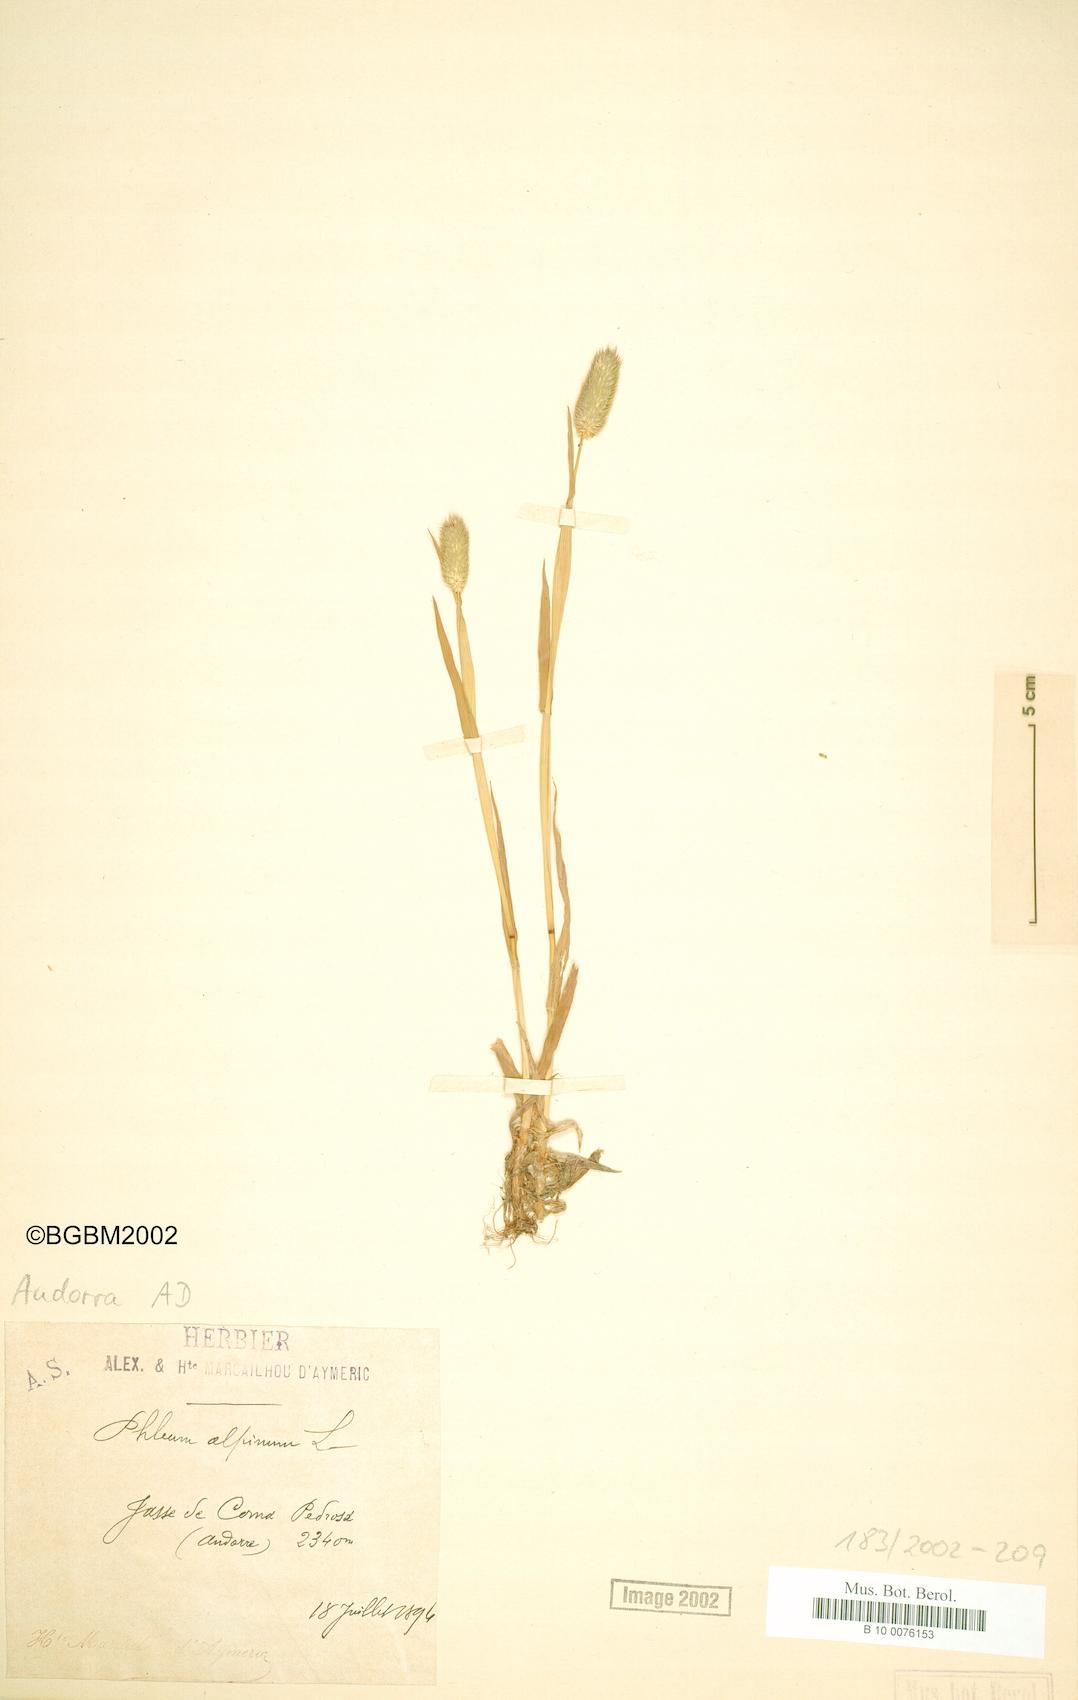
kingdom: Plantae
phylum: Tracheophyta
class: Liliopsida
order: Poales
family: Poaceae
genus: Phleum
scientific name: Phleum alpinum
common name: Alpine cat's-tail
